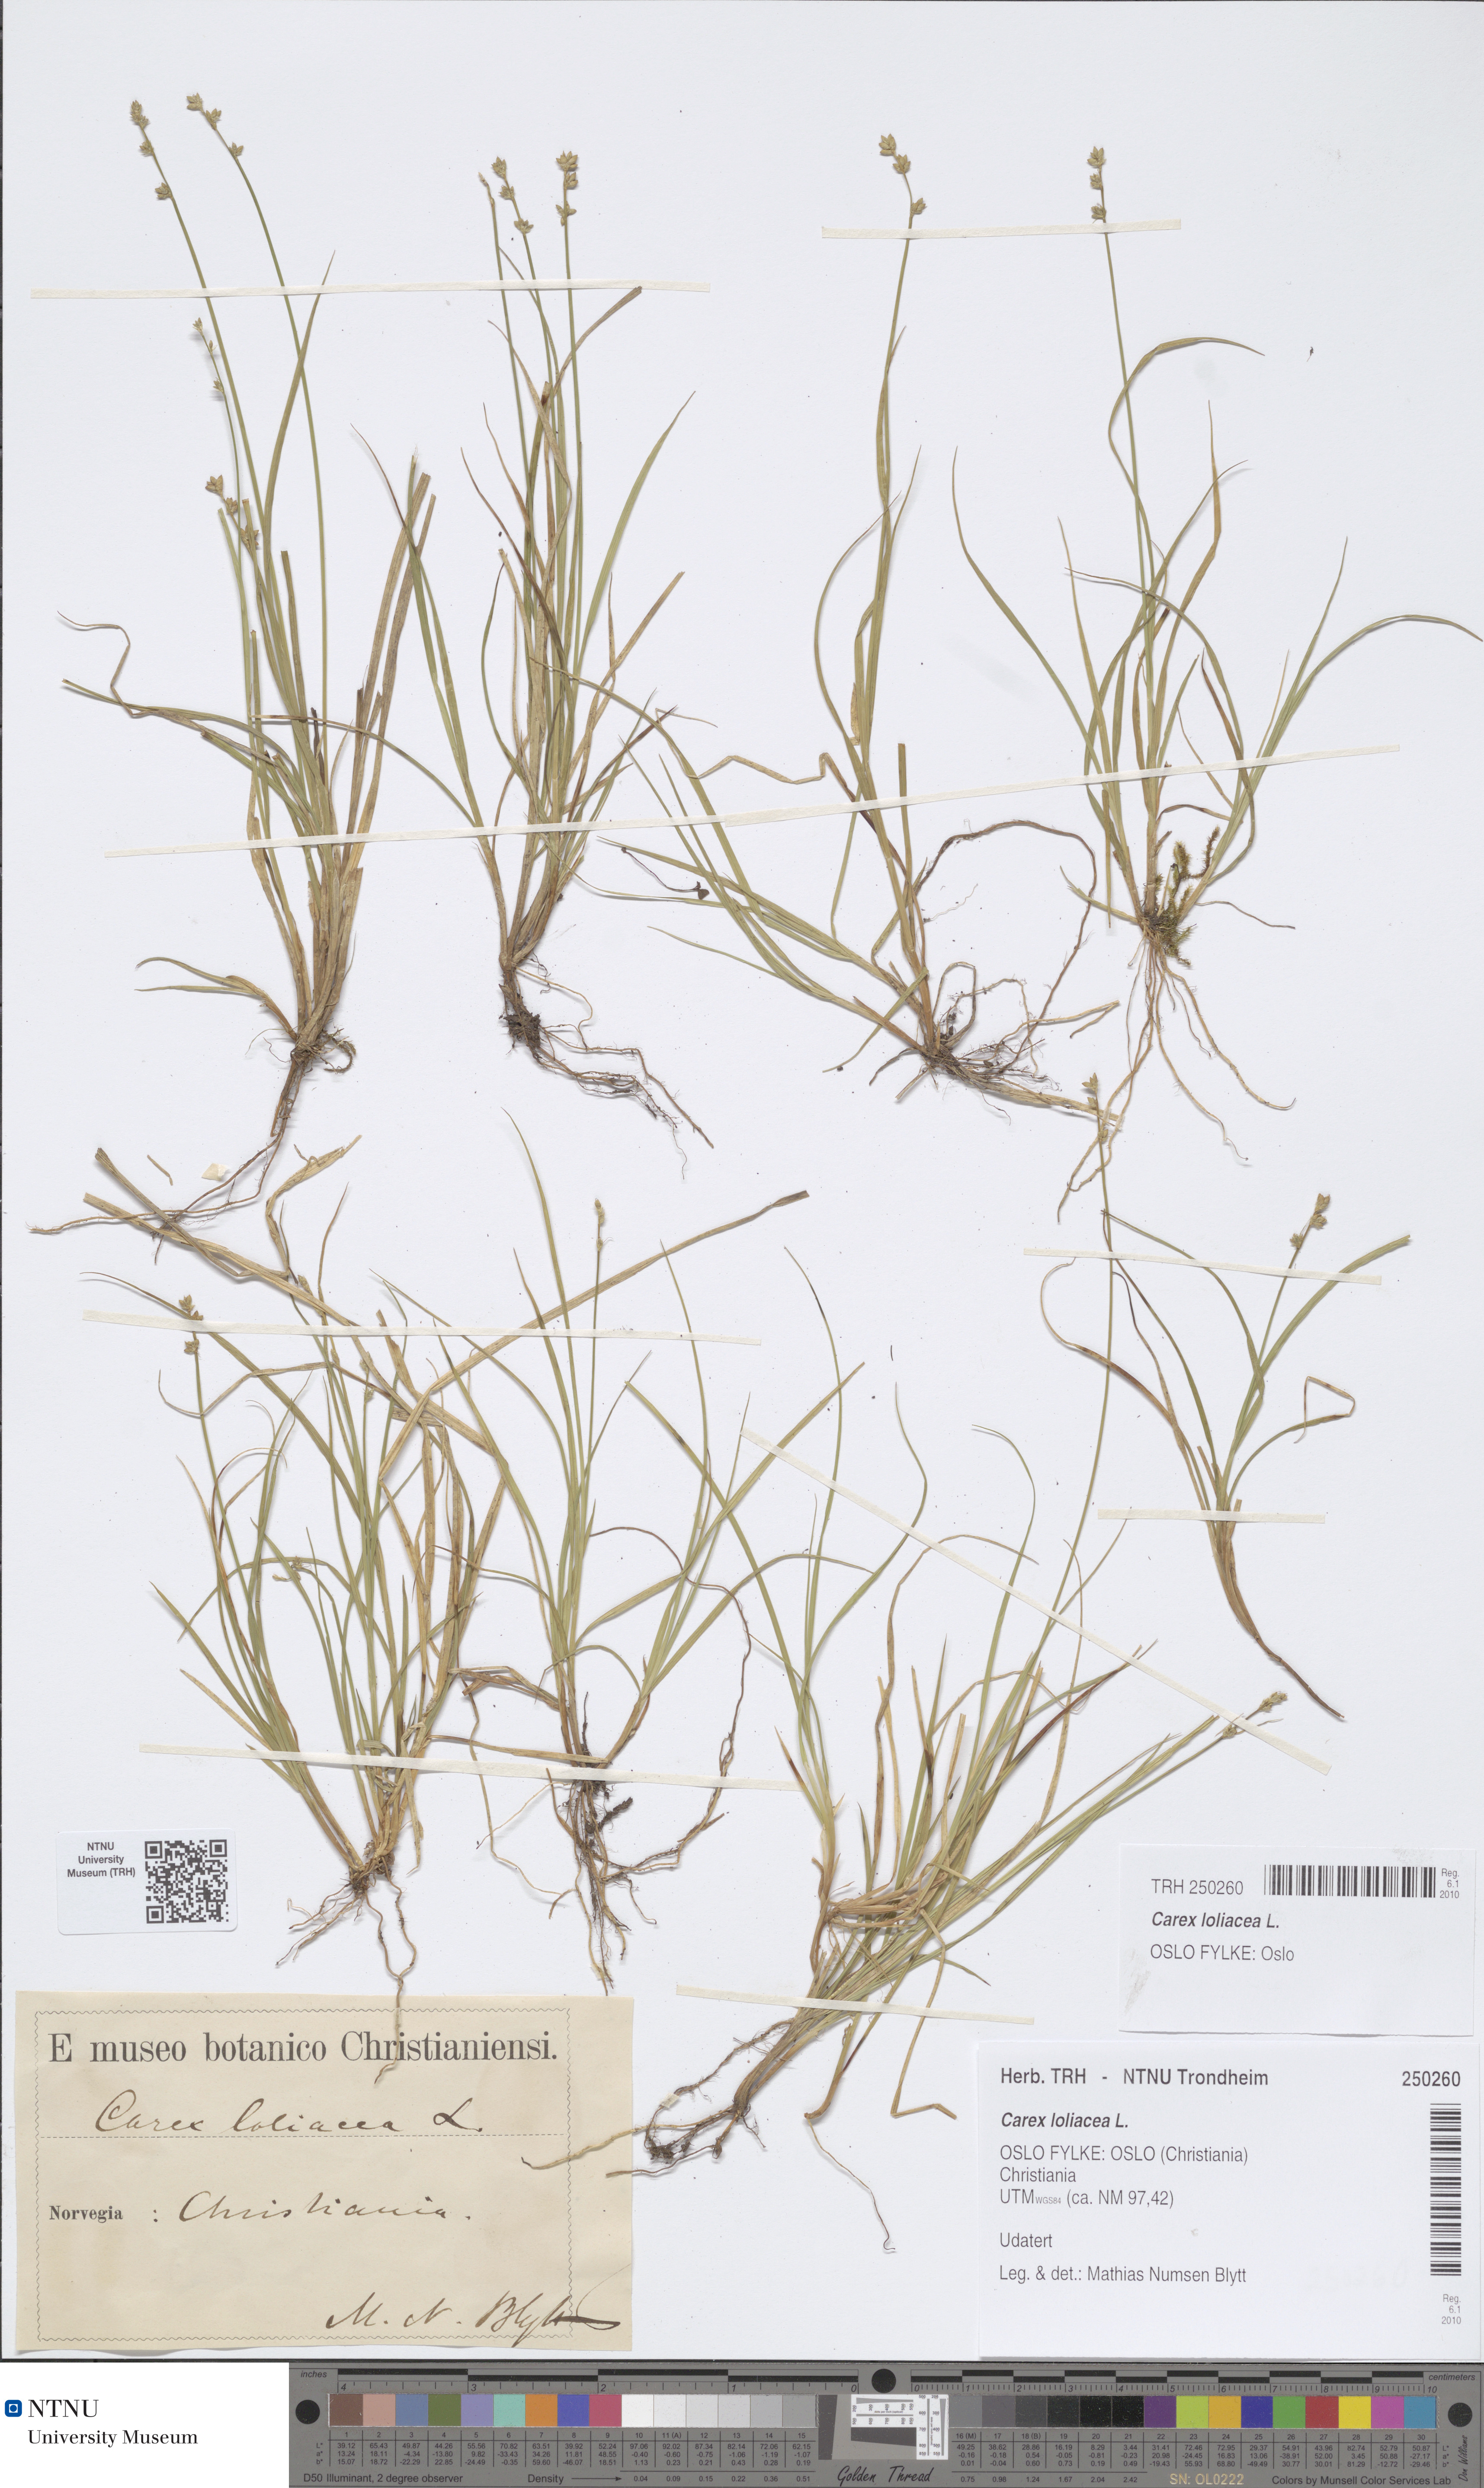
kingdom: Plantae
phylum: Tracheophyta
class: Liliopsida
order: Poales
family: Cyperaceae
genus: Carex
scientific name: Carex loliacea
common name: Ryegrass sedge
